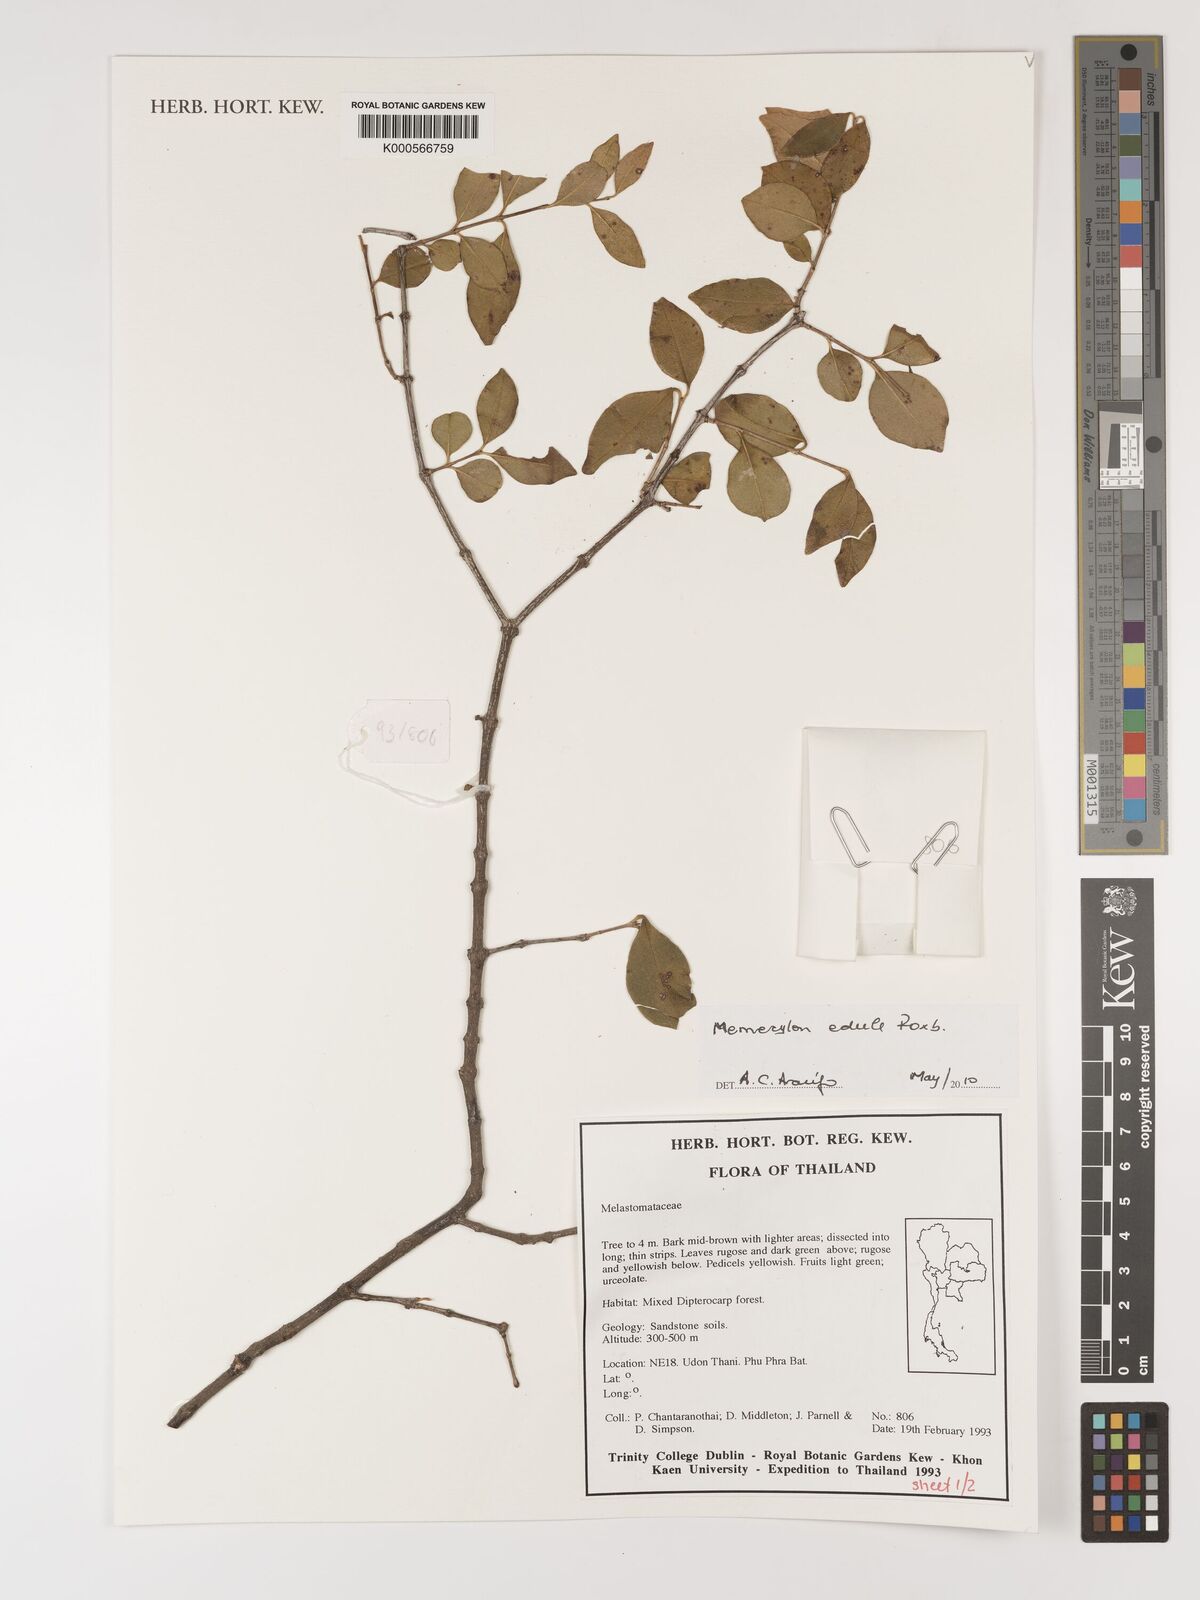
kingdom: Plantae
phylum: Tracheophyta
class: Magnoliopsida
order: Myrtales
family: Melastomataceae
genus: Memecylon
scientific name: Memecylon edule
